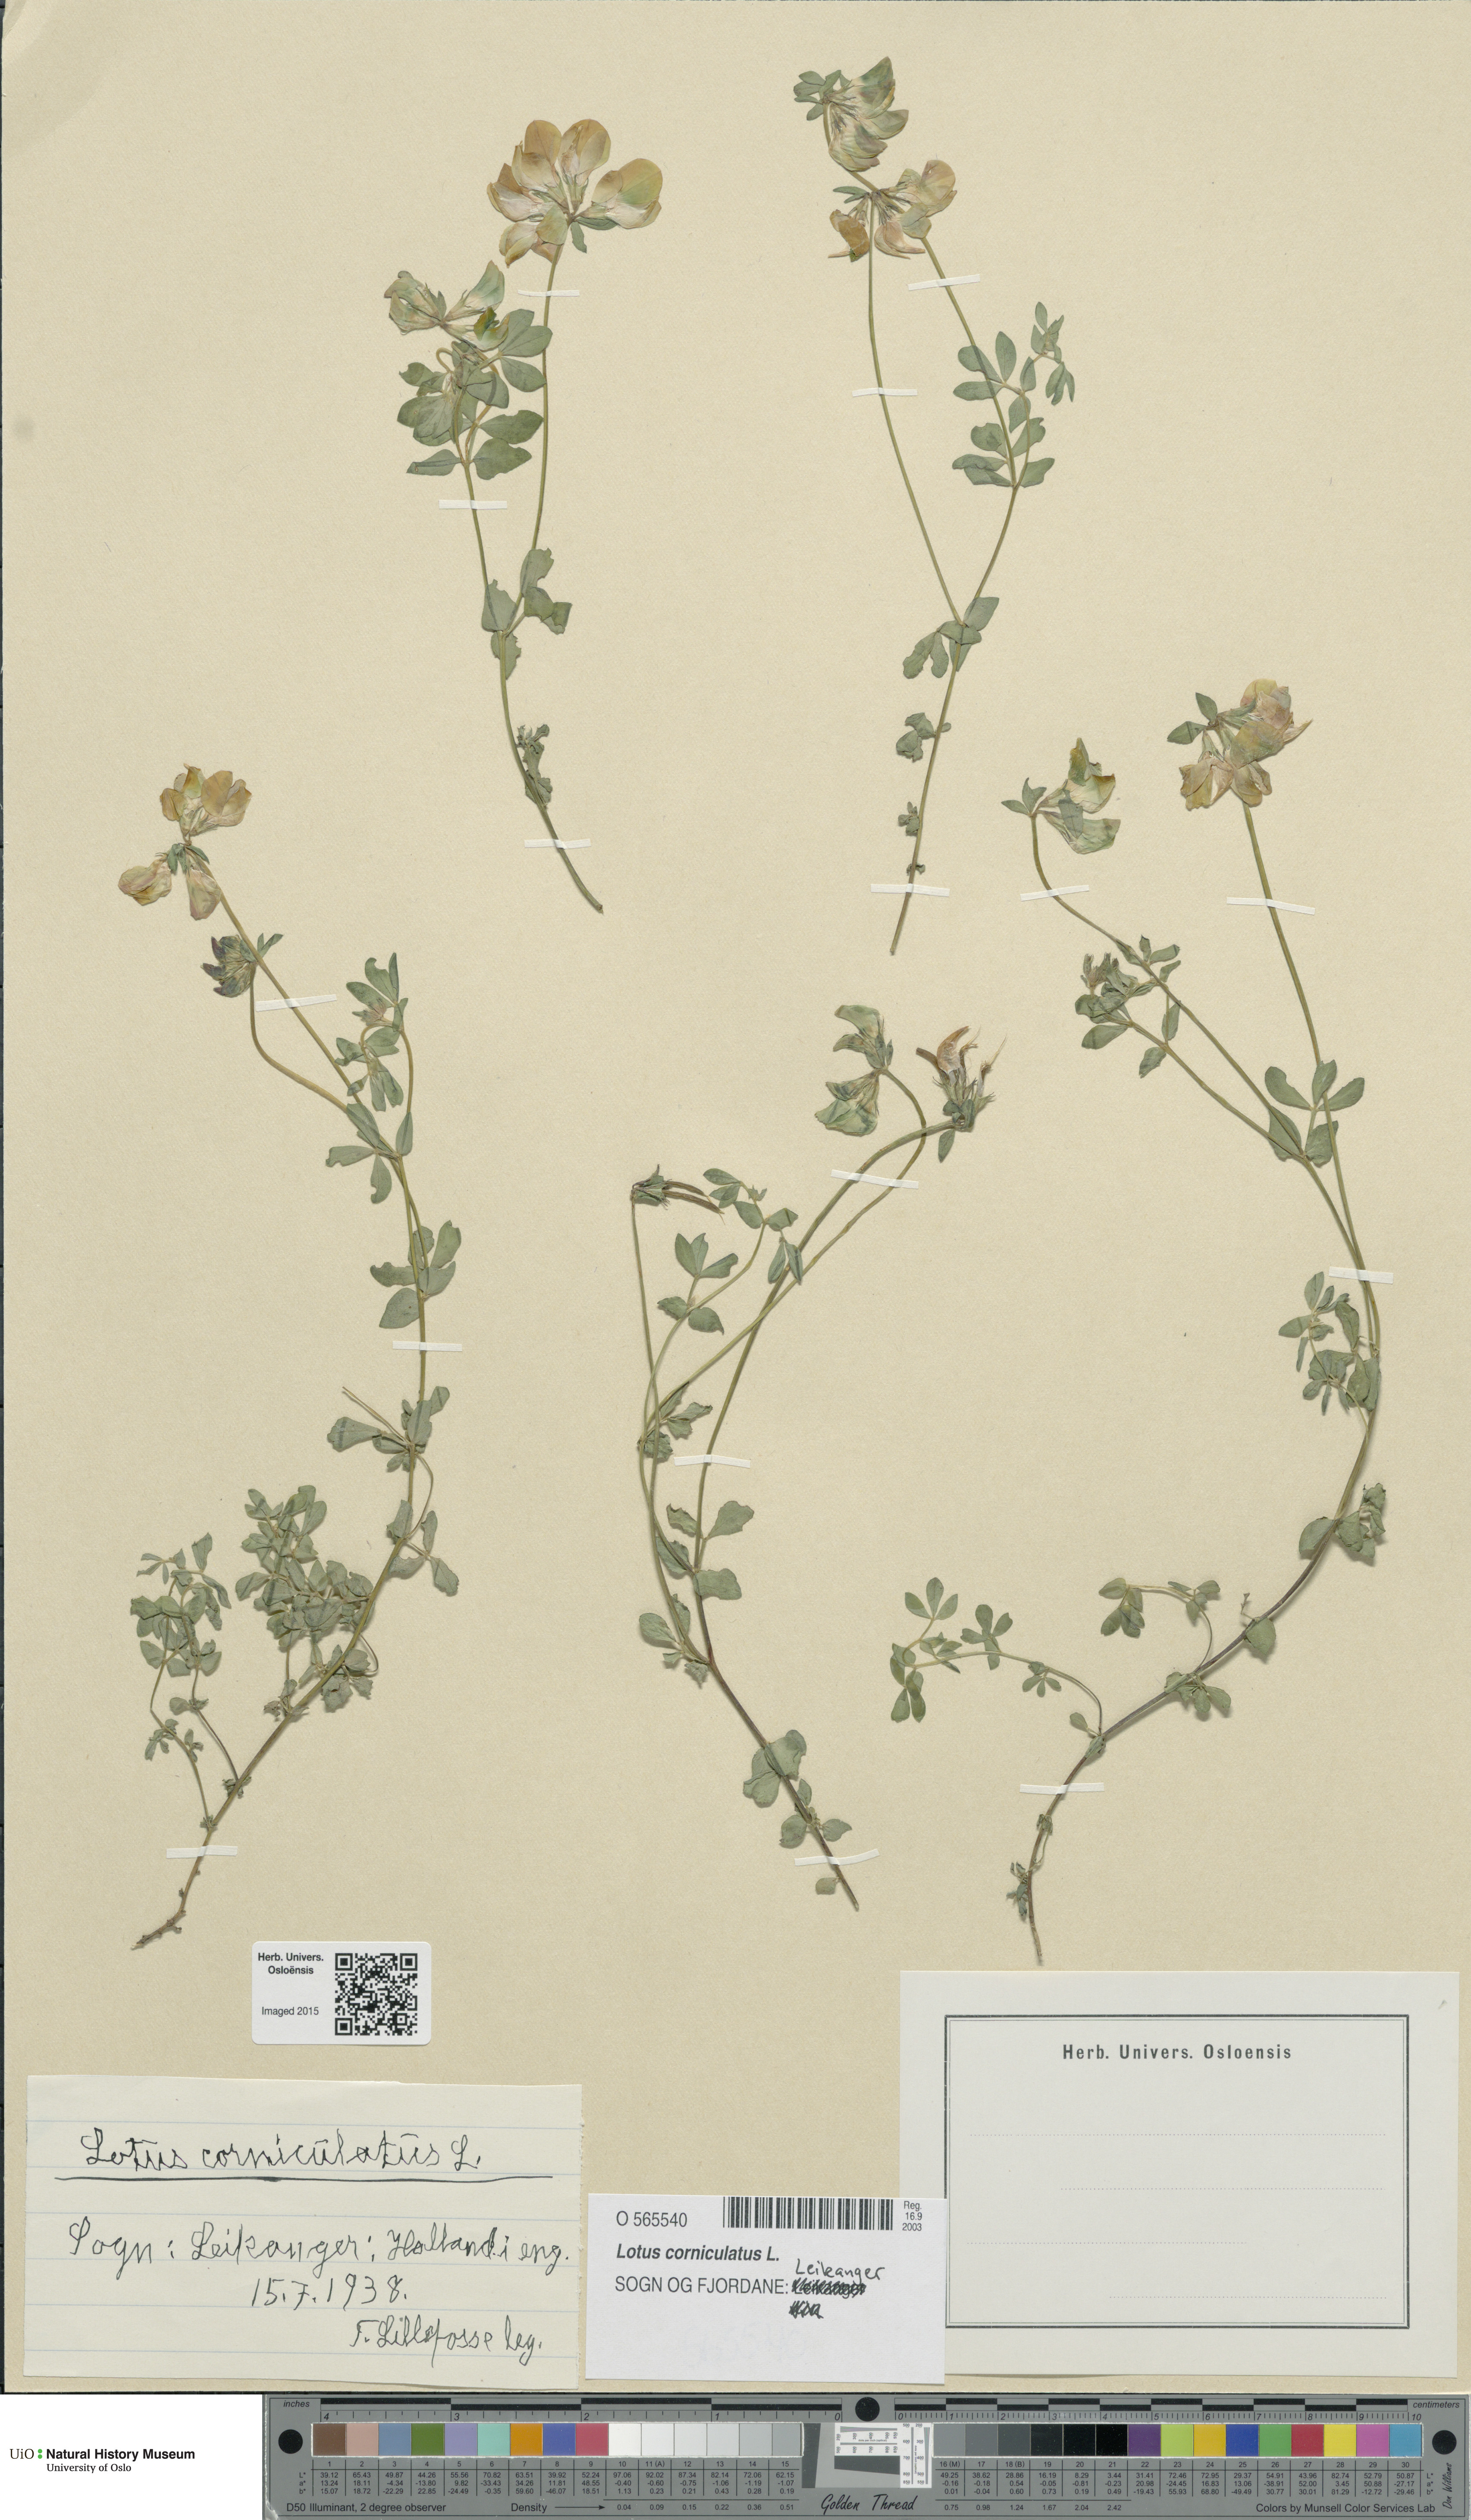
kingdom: Plantae
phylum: Tracheophyta
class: Magnoliopsida
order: Fabales
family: Fabaceae
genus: Lotus
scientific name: Lotus corniculatus
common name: Common bird's-foot-trefoil
